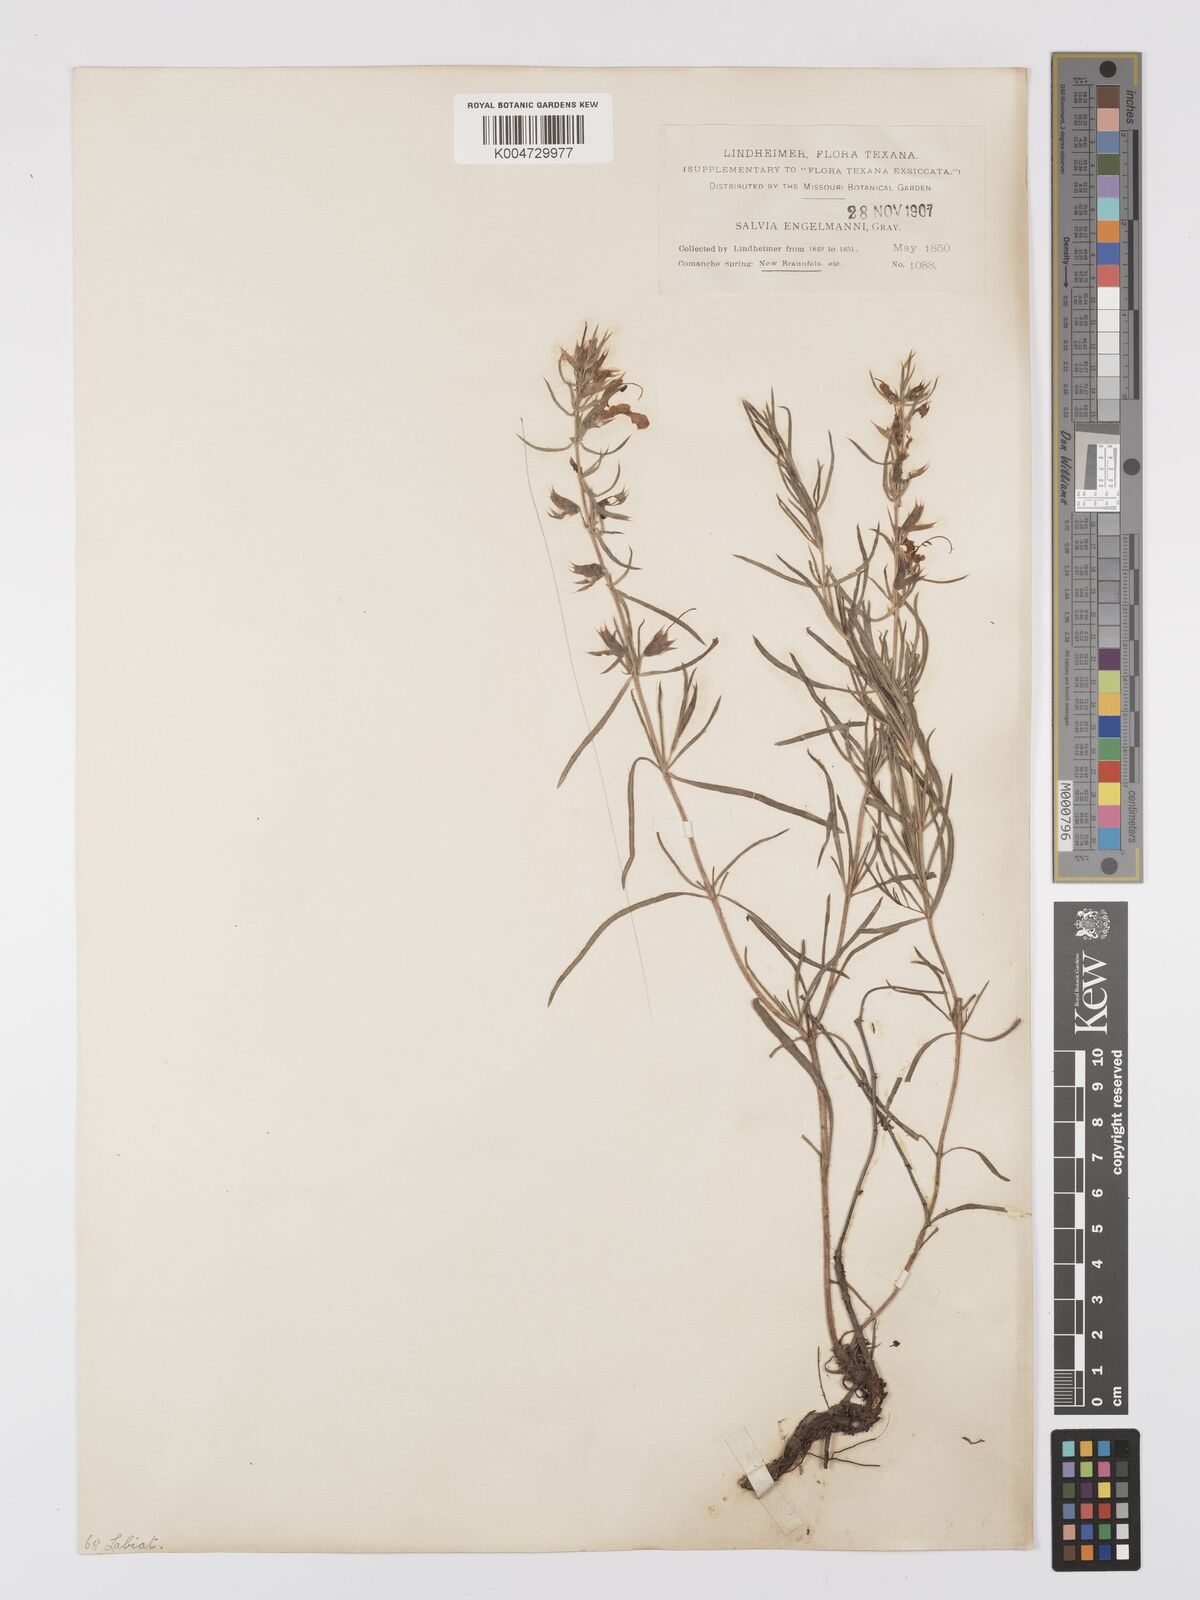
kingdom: Plantae
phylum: Tracheophyta
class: Magnoliopsida
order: Lamiales
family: Lamiaceae
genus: Salvia
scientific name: Salvia
